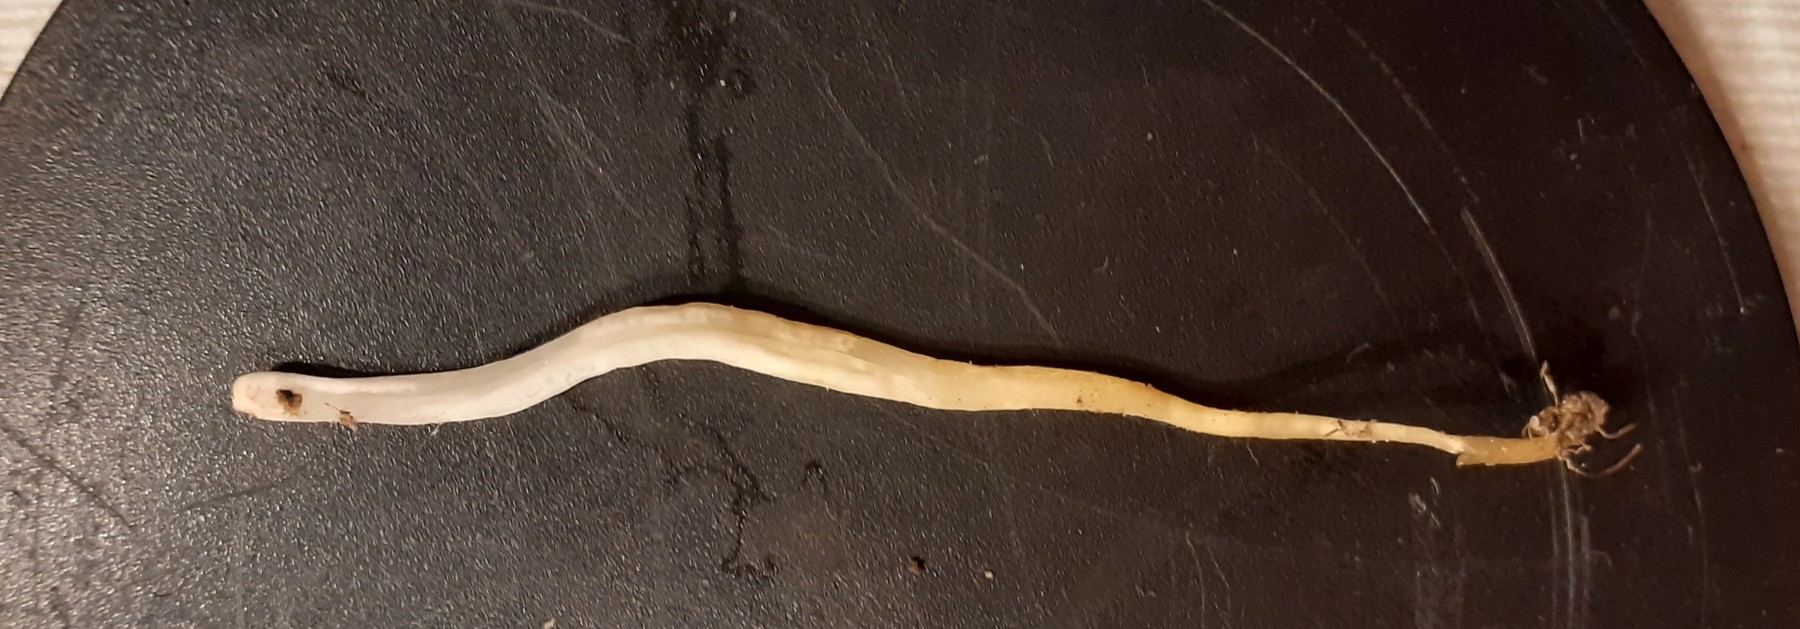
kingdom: Fungi
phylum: Basidiomycota
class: Agaricomycetes
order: Agaricales
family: Clavariaceae
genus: Clavaria
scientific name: Clavaria
